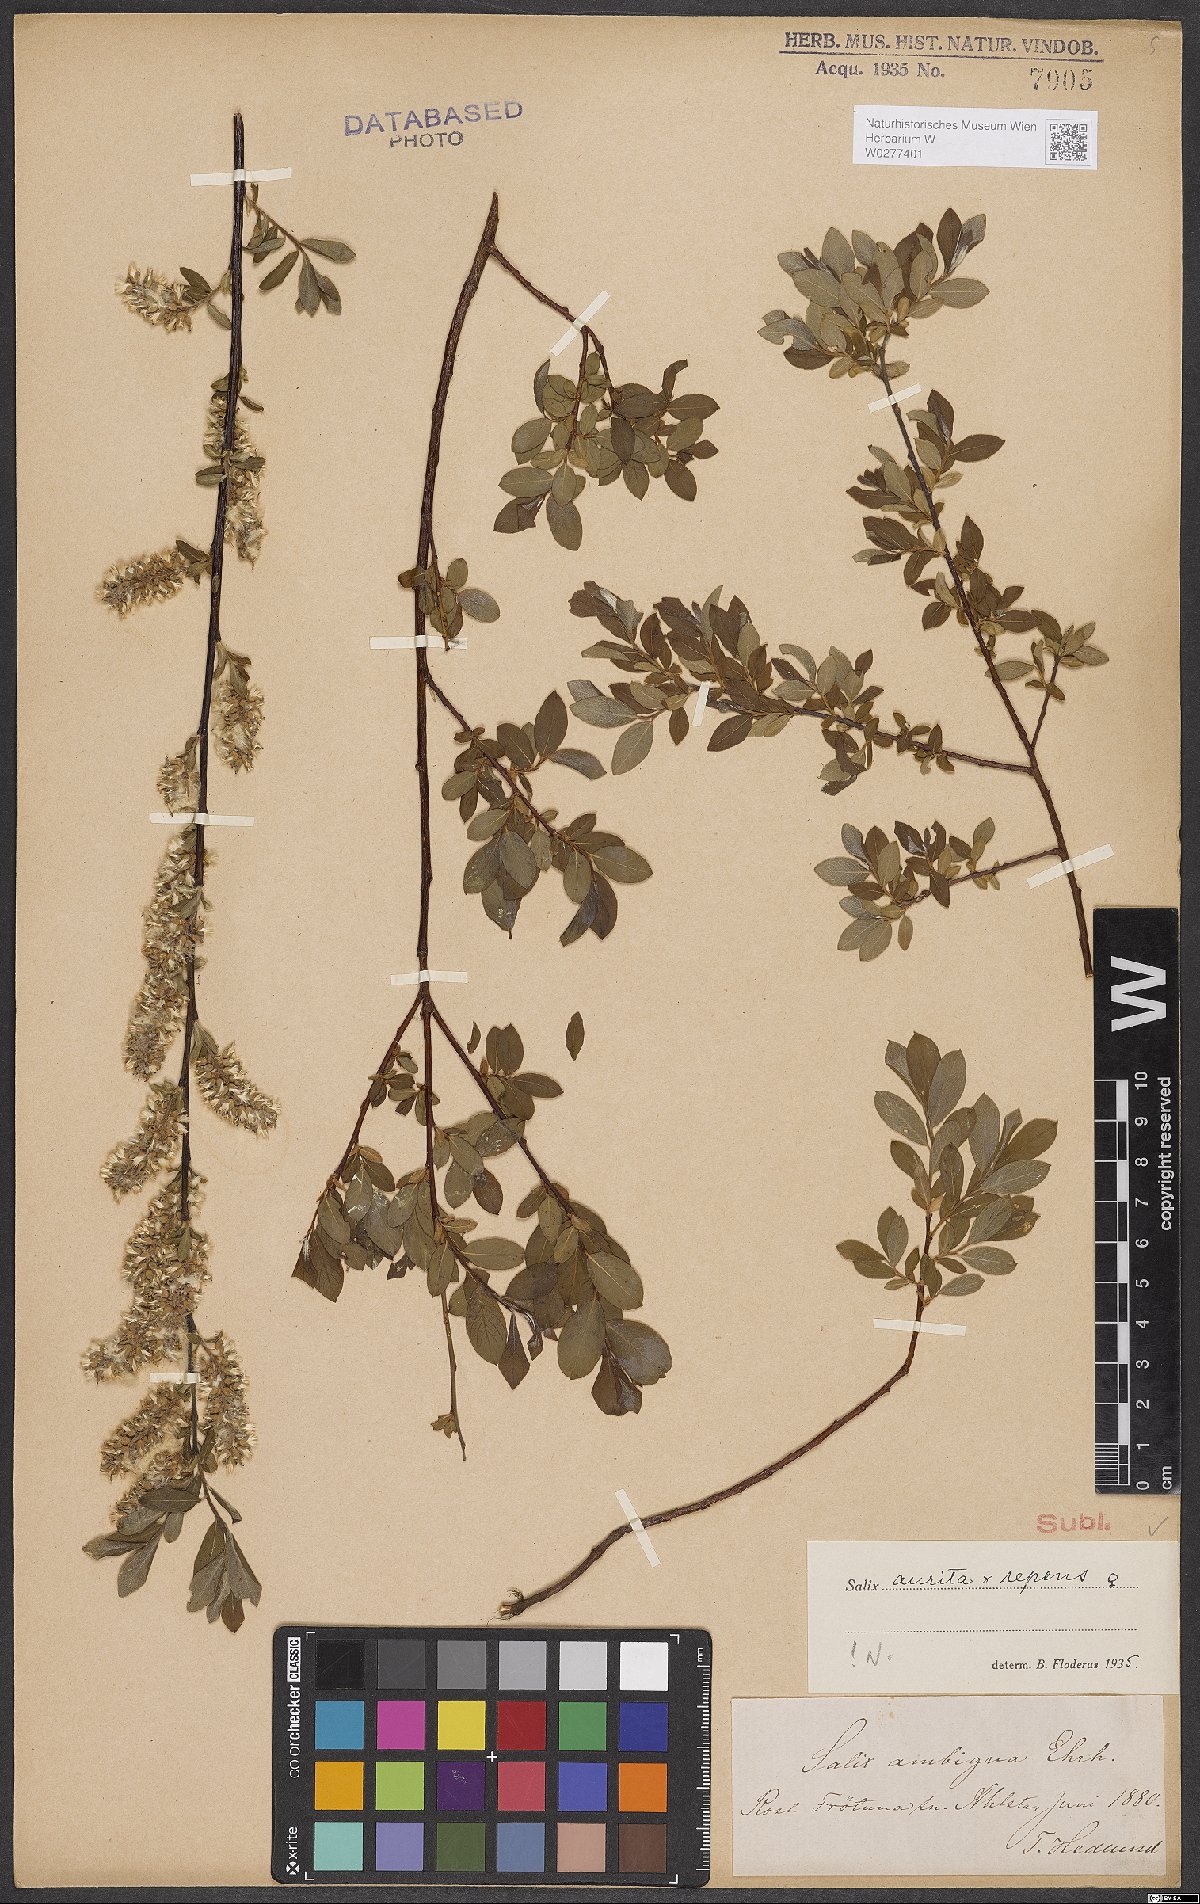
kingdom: Plantae
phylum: Tracheophyta
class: Magnoliopsida
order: Malpighiales
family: Salicaceae
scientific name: Salicaceae
